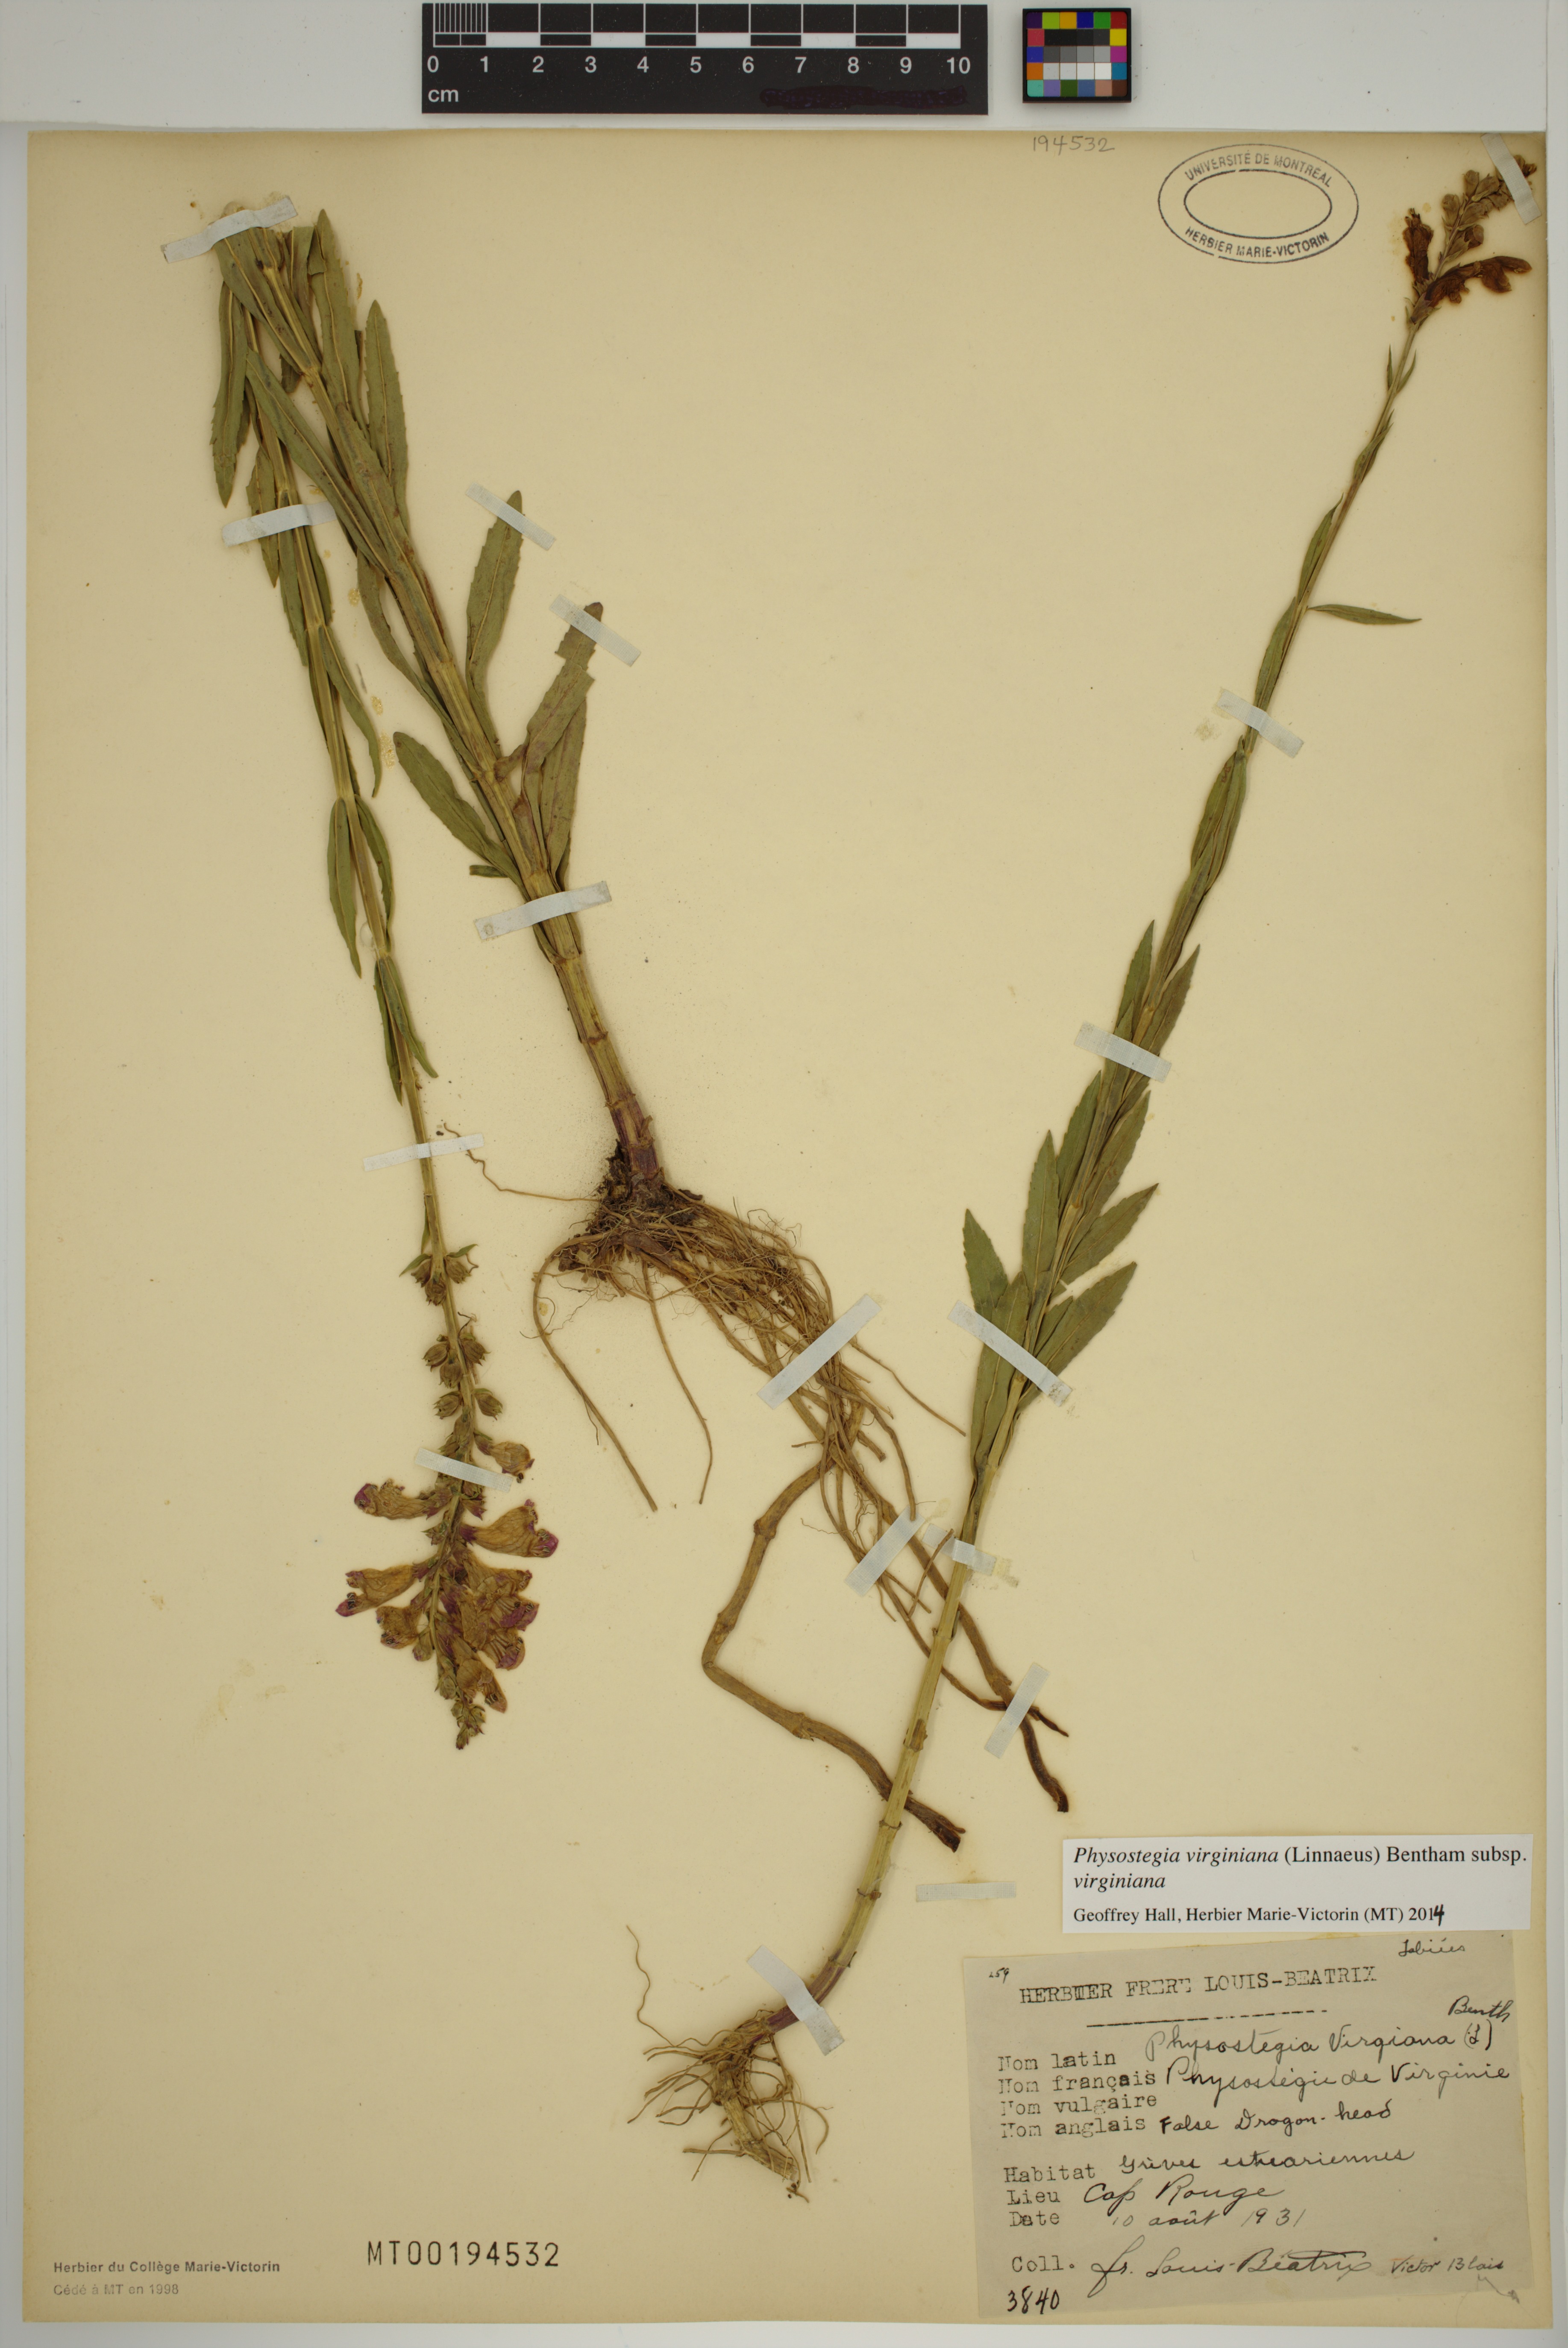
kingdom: Plantae
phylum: Tracheophyta
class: Magnoliopsida
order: Lamiales
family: Lamiaceae
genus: Physostegia
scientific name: Physostegia virginiana
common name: Obedient-plant
